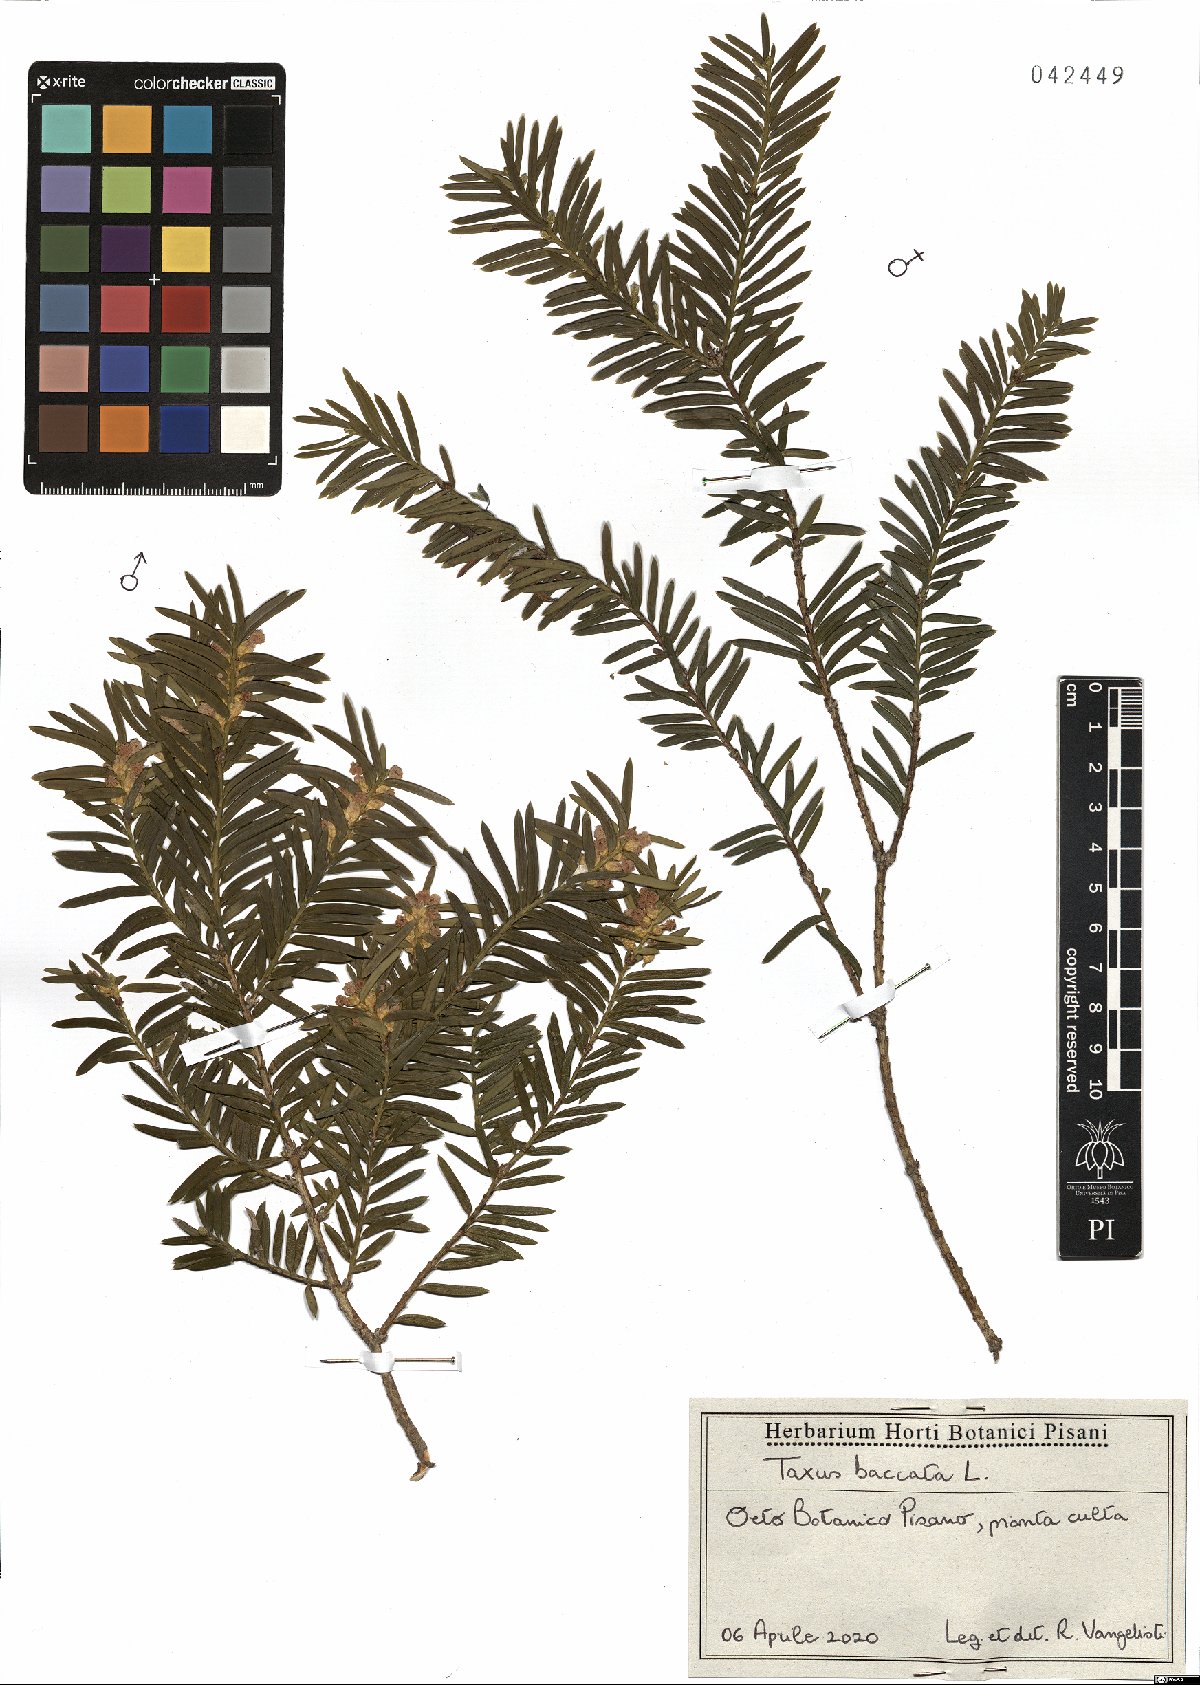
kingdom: Plantae
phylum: Tracheophyta
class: Pinopsida
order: Pinales
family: Taxaceae
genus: Taxus
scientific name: Taxus baccata
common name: Yew
